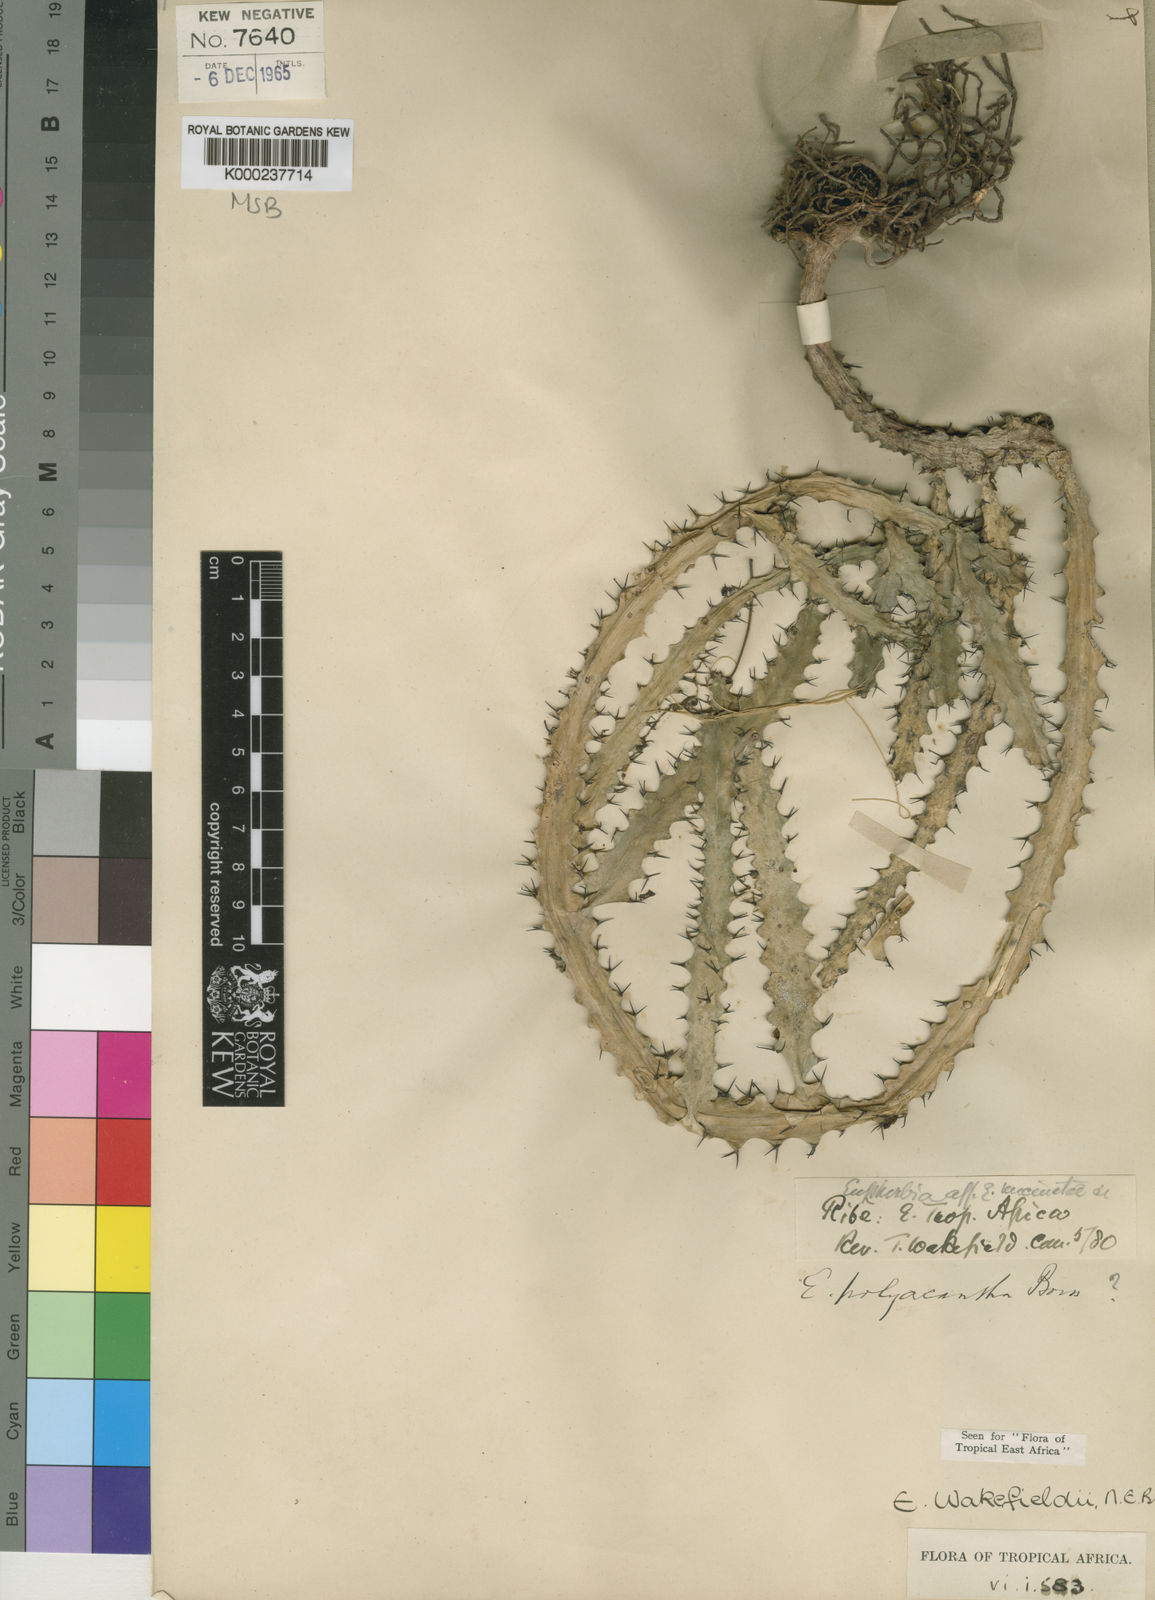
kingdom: Plantae
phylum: Tracheophyta
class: Magnoliopsida
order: Malpighiales
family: Euphorbiaceae
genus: Euphorbia
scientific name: Euphorbia wakefieldii
